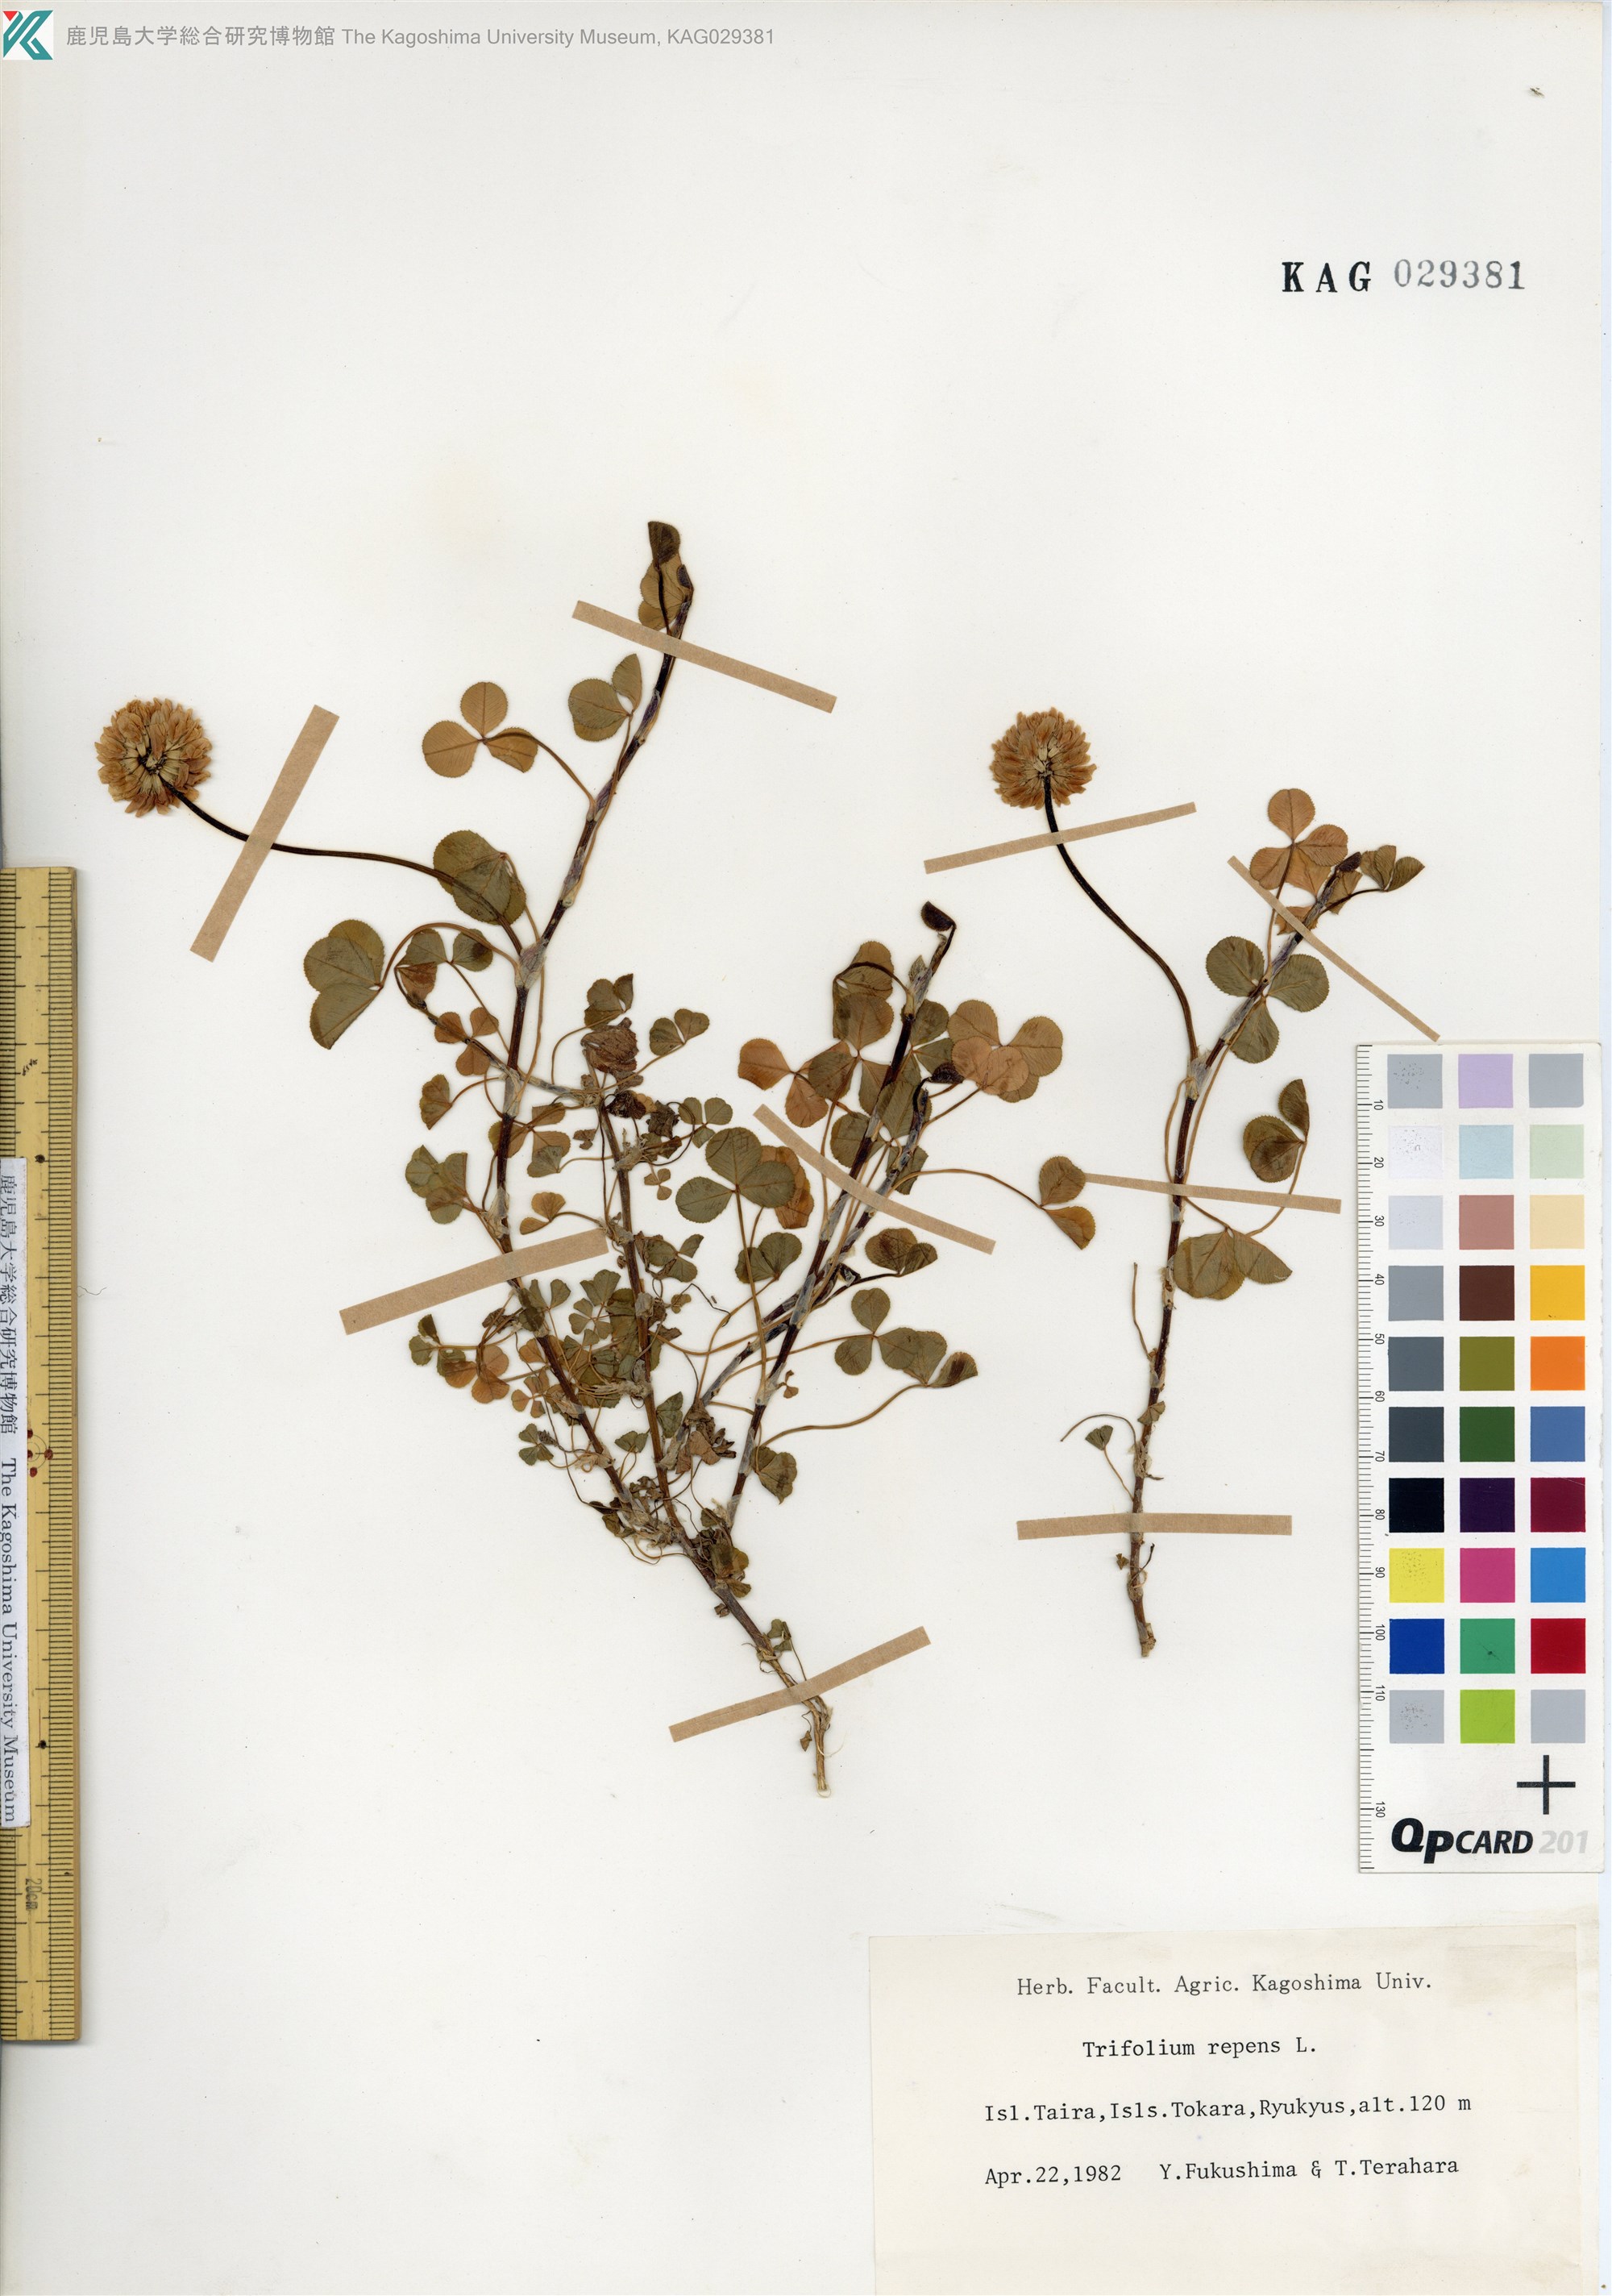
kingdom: Plantae
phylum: Tracheophyta
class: Magnoliopsida
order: Fabales
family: Fabaceae
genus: Trifolium
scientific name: Trifolium repens
